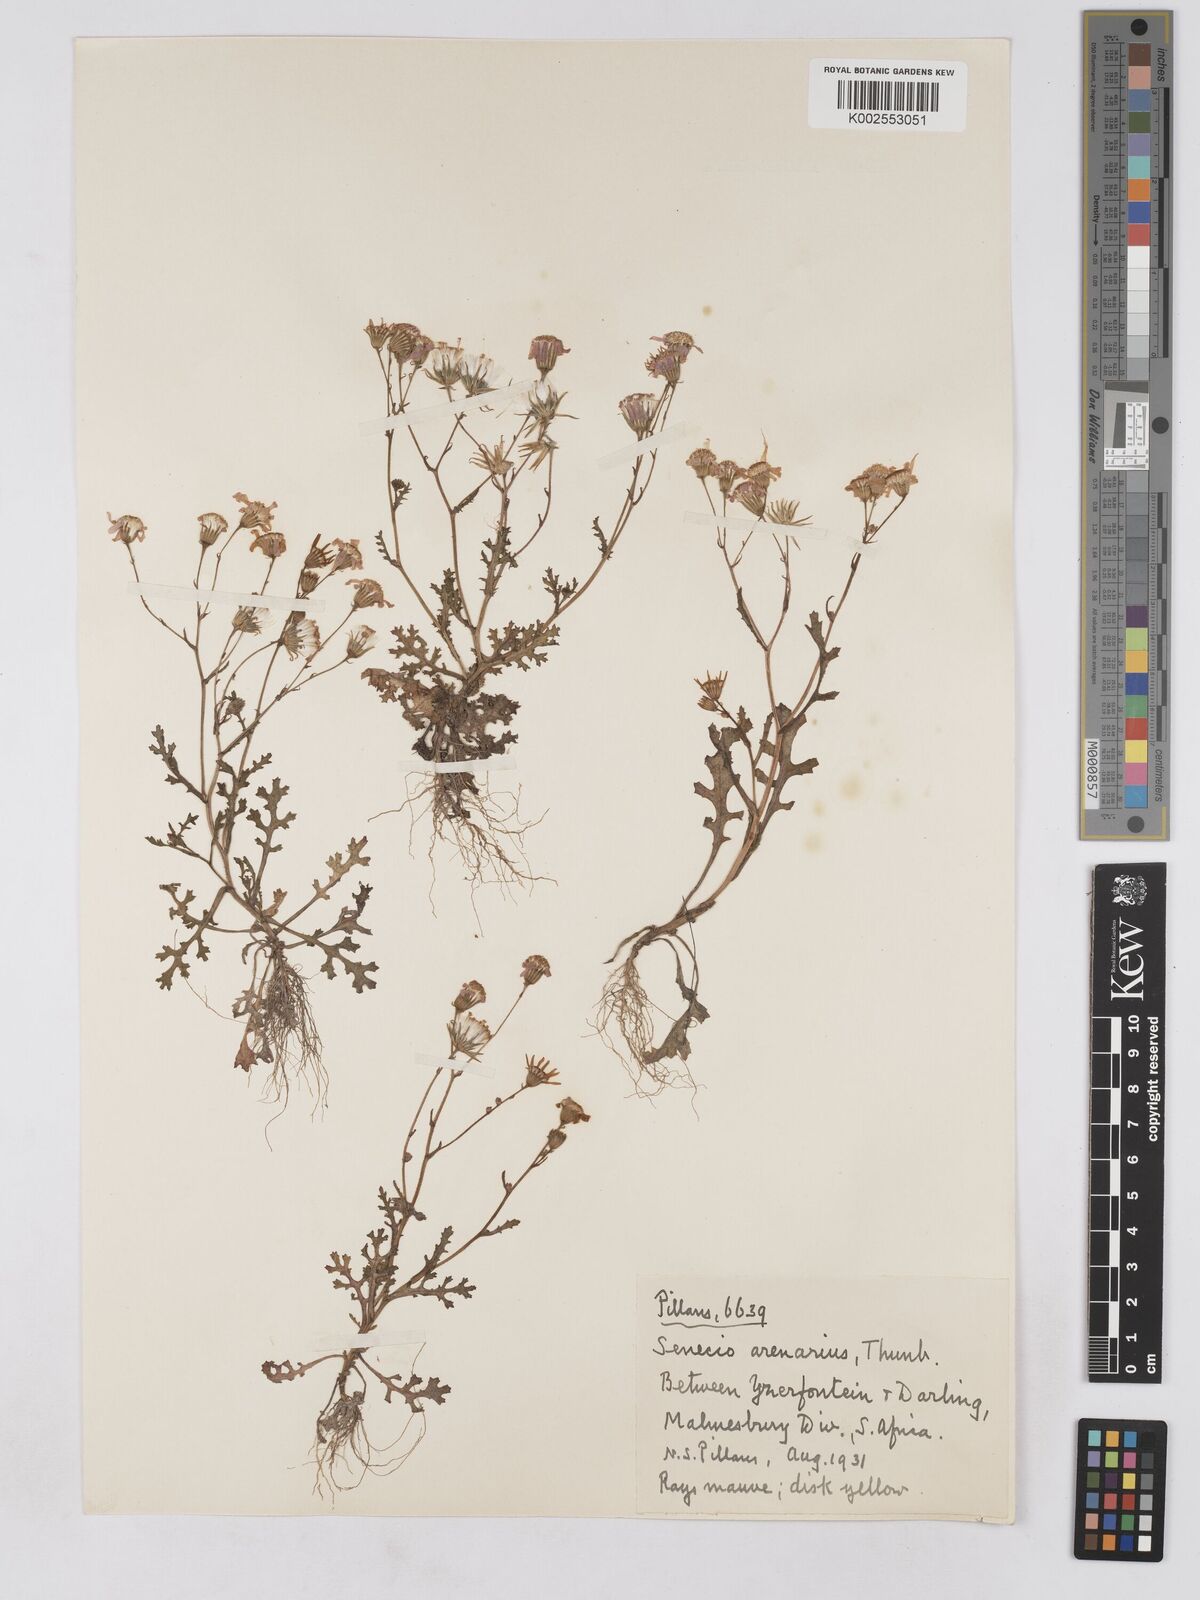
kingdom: Plantae
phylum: Tracheophyta
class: Magnoliopsida
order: Asterales
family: Asteraceae
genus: Senecio
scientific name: Senecio arenarius
